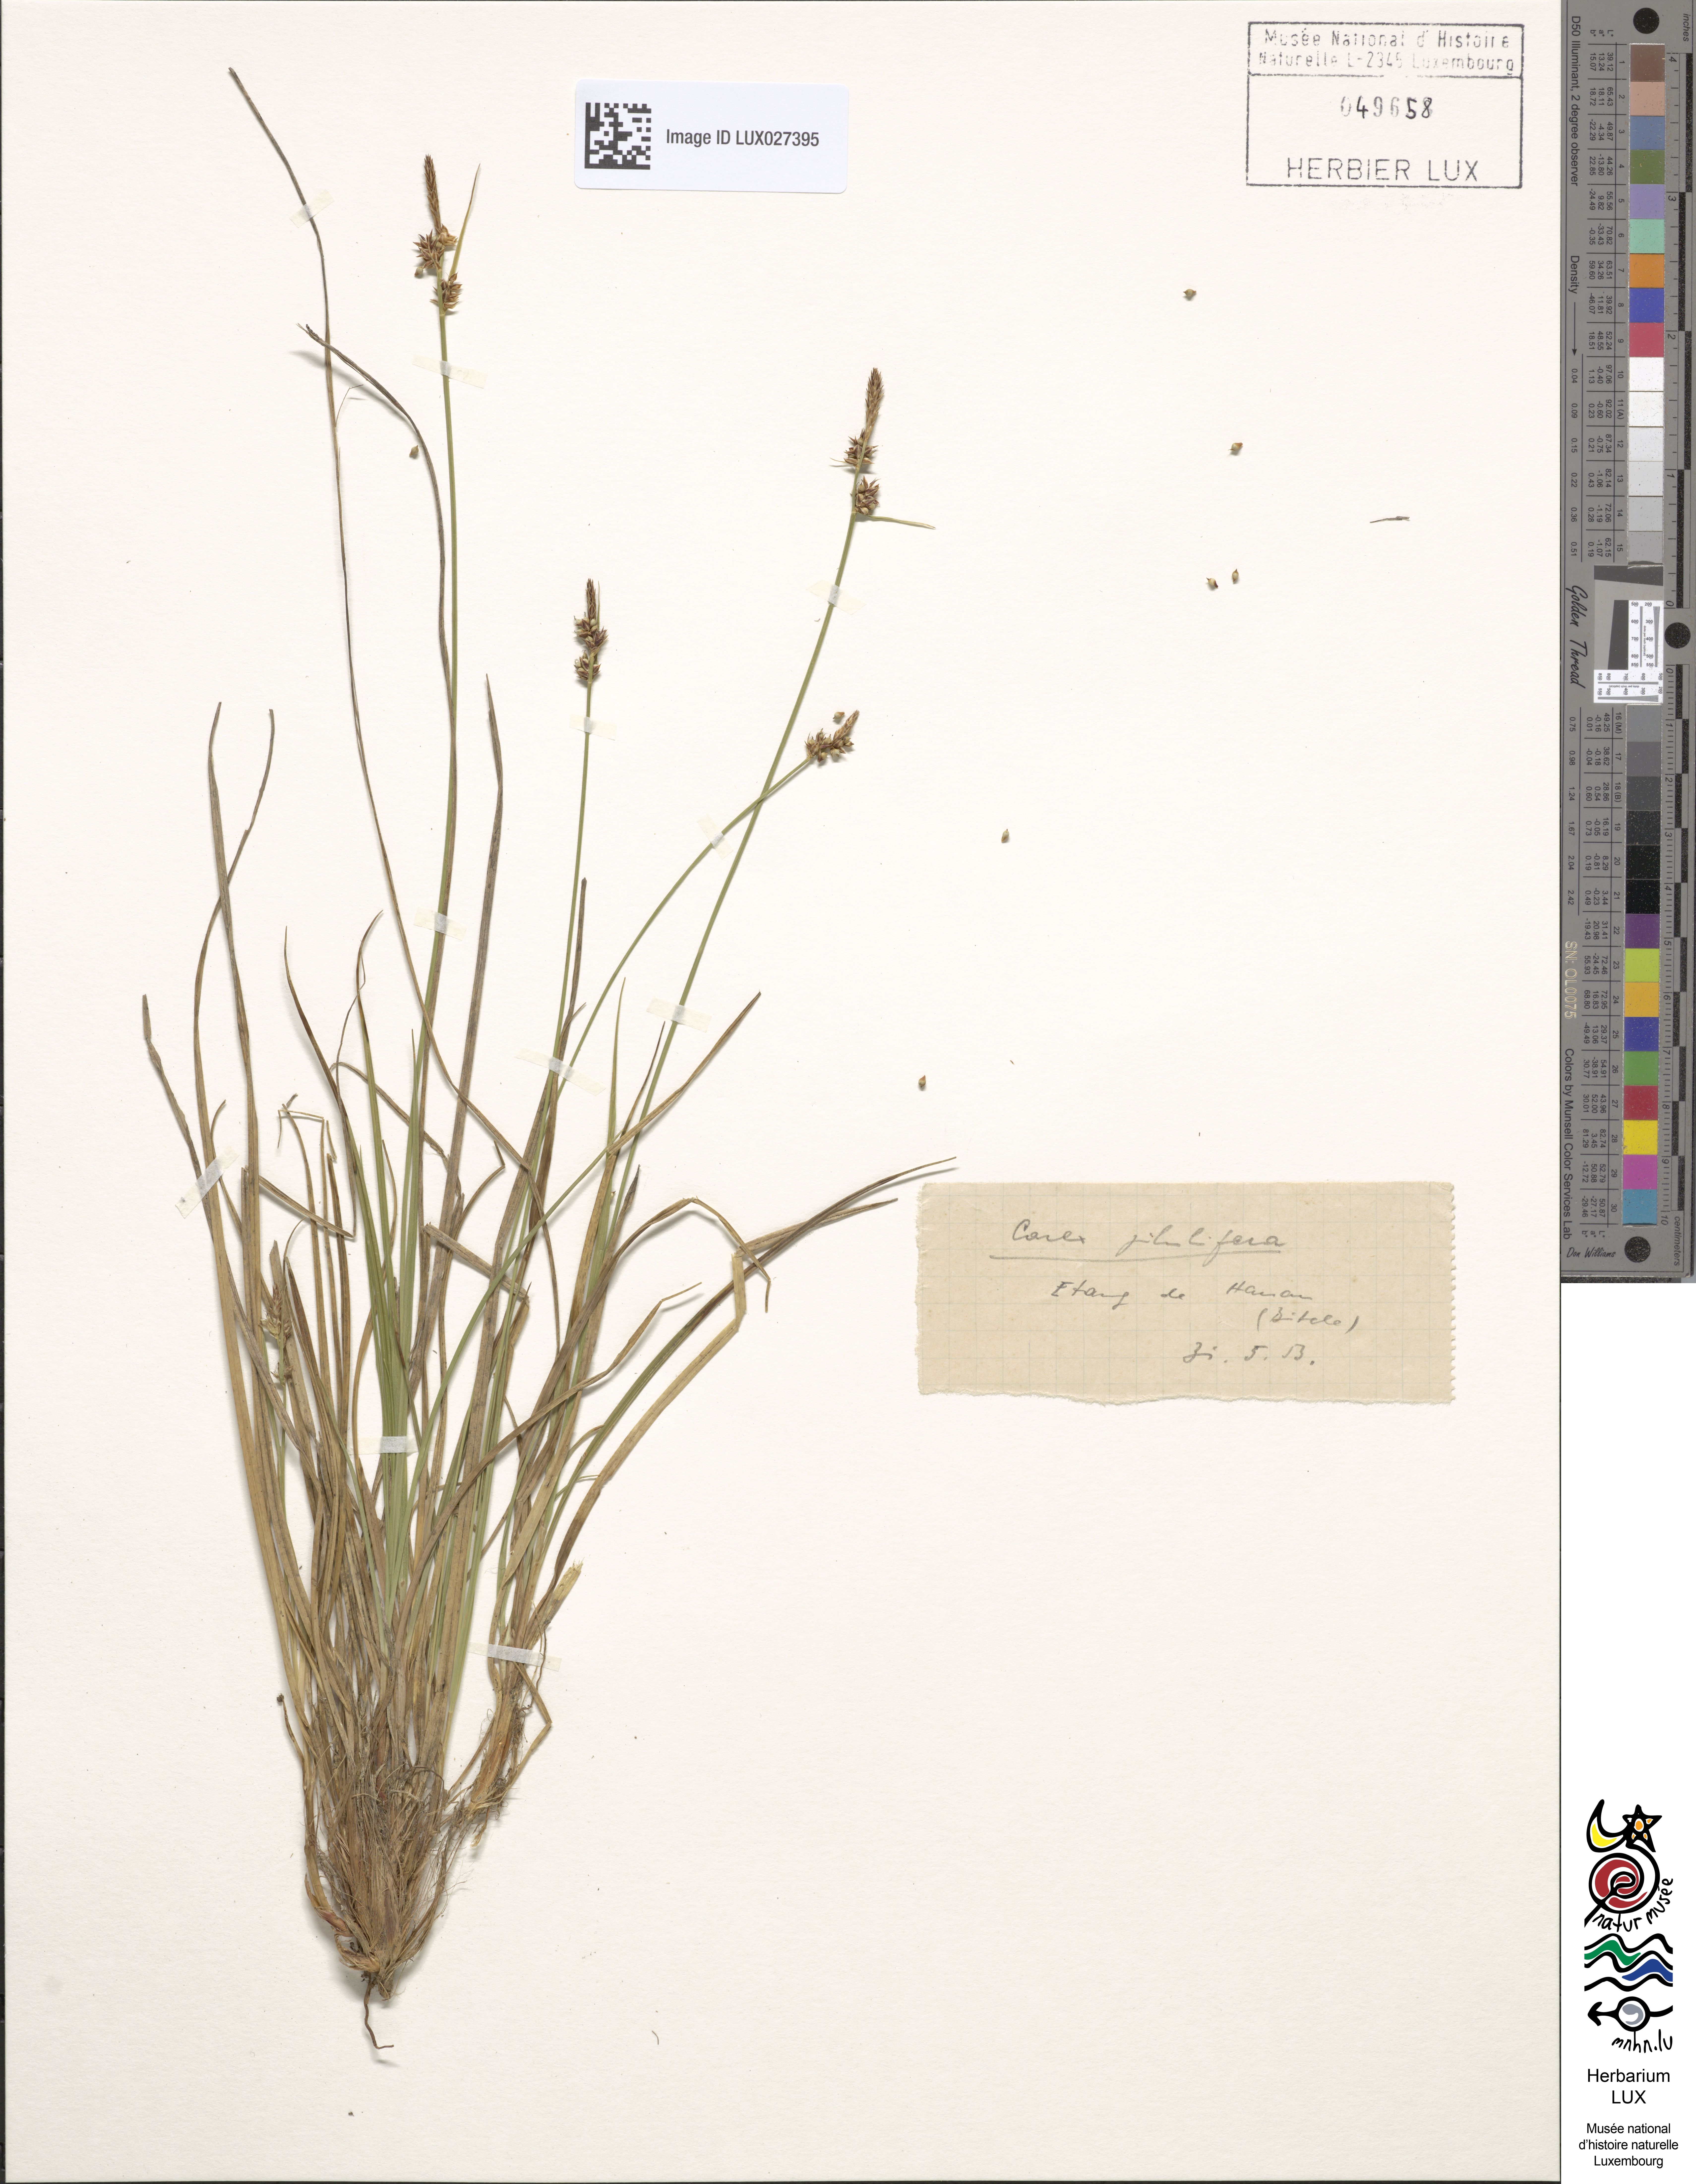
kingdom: Plantae
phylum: Tracheophyta
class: Liliopsida
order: Poales
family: Cyperaceae
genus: Carex
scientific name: Carex pilulifera
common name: Pill sedge
